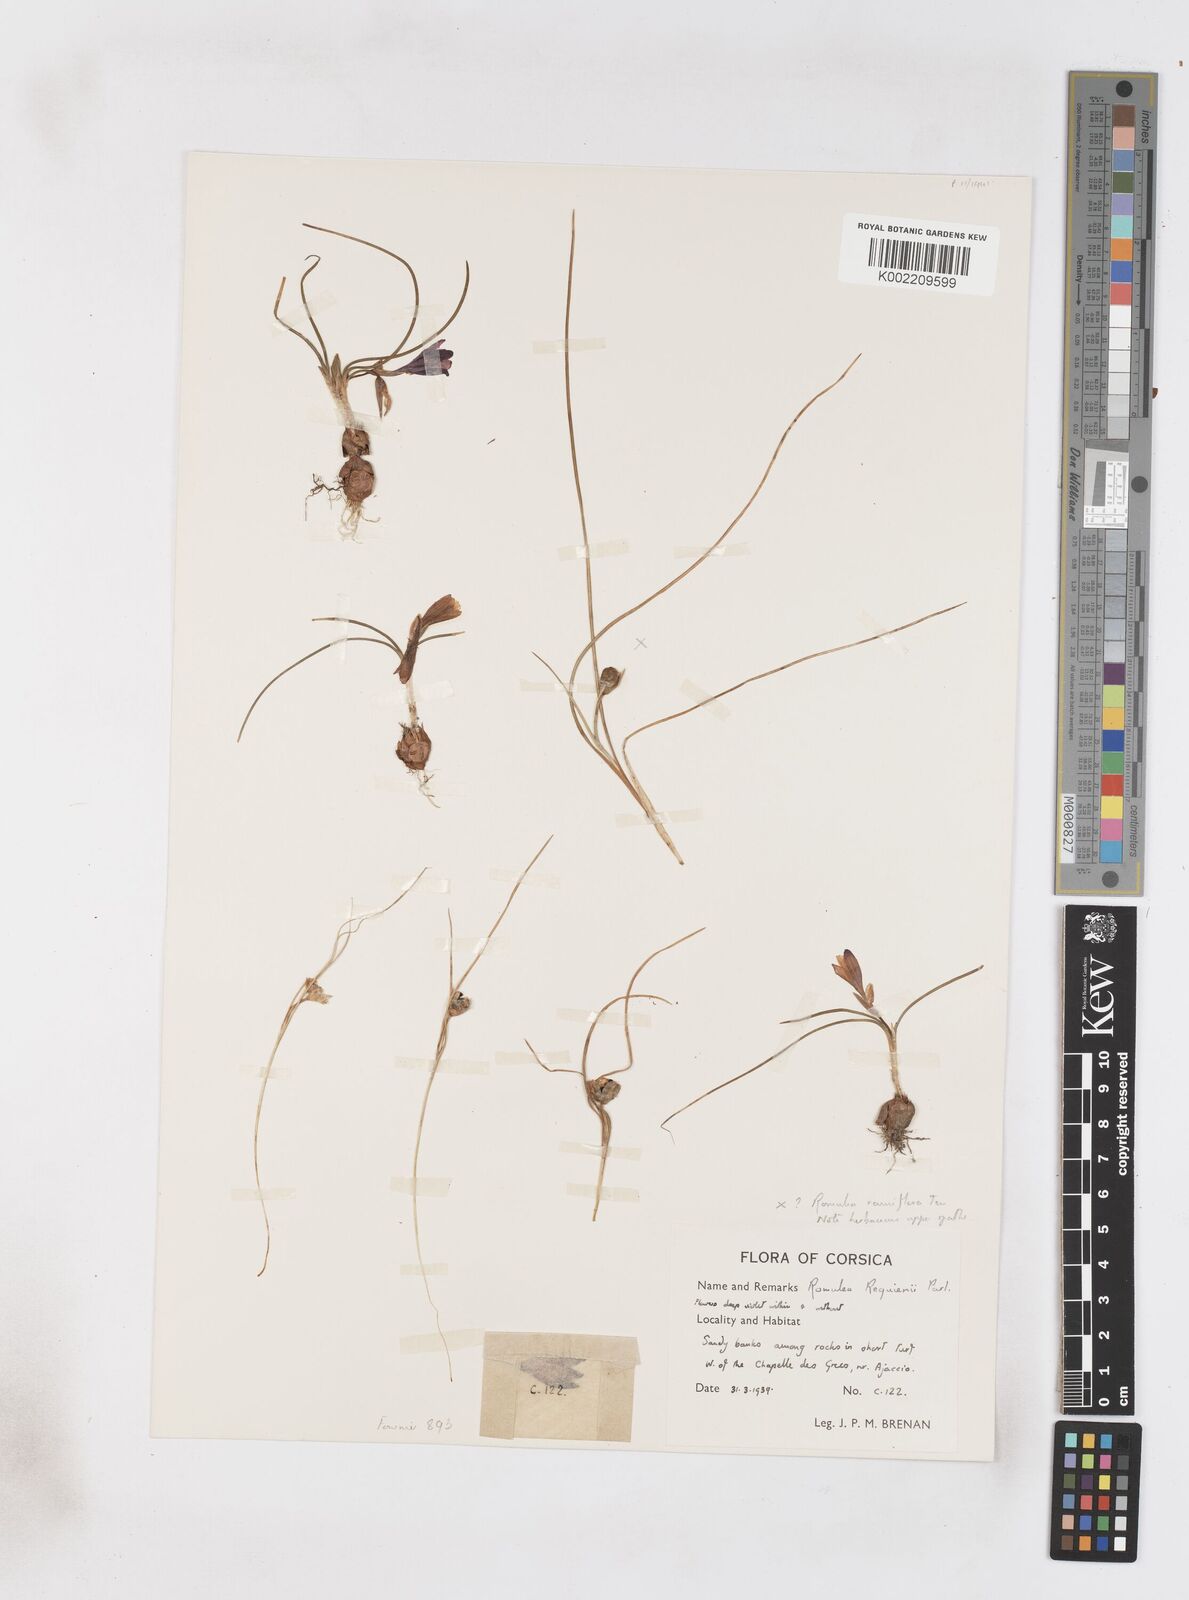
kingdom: Plantae
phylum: Tracheophyta
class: Liliopsida
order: Asparagales
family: Iridaceae
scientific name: Iridaceae
